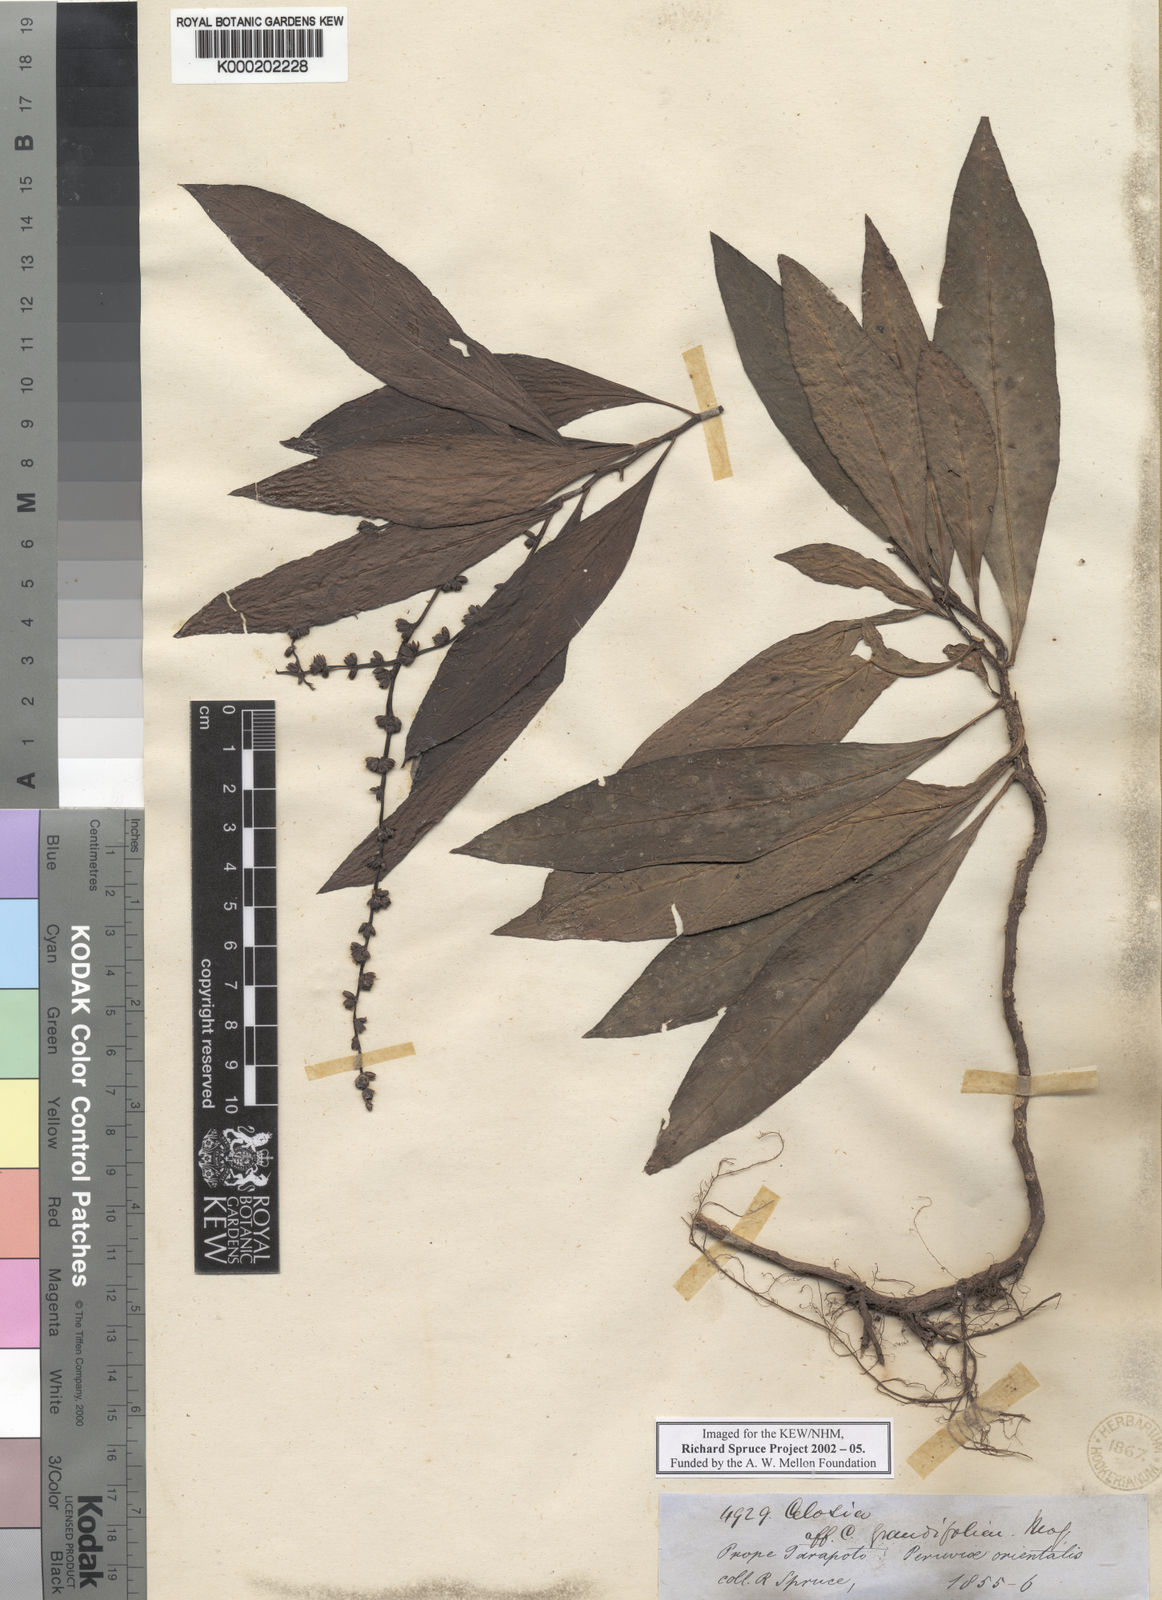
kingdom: Plantae
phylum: Tracheophyta
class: Magnoliopsida
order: Caryophyllales
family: Amaranthaceae
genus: Celosia
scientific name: Celosia grandifolia
